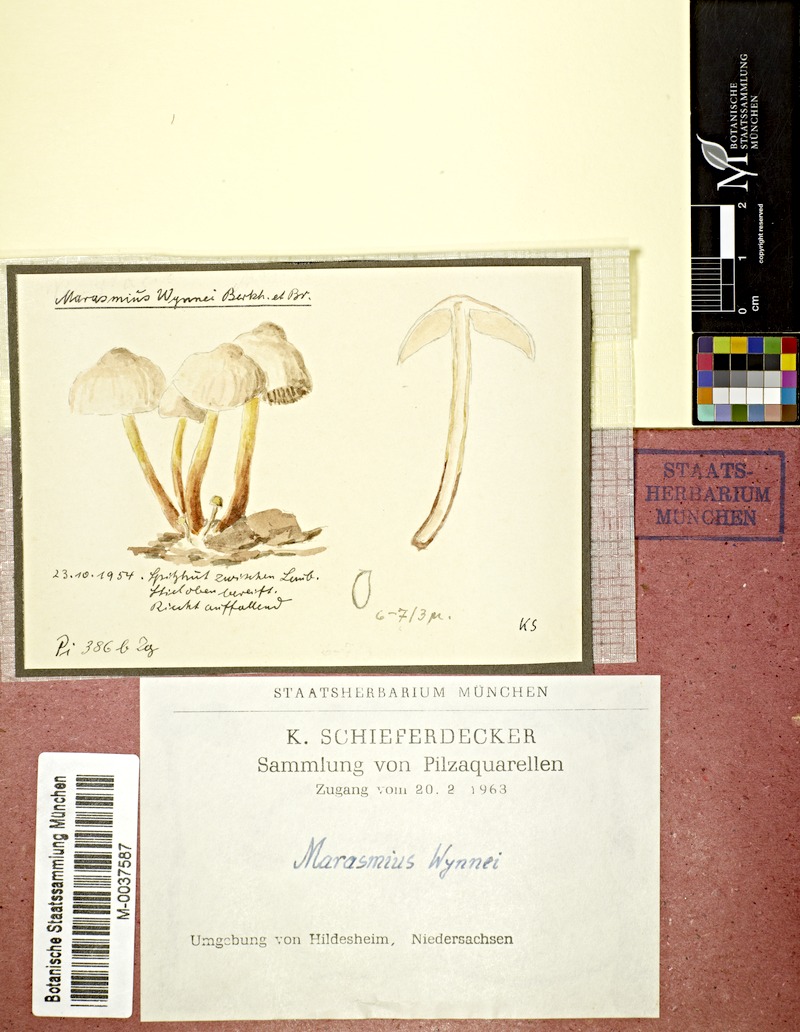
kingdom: Fungi
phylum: Basidiomycota
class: Agaricomycetes
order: Agaricales
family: Marasmiaceae
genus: Marasmius
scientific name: Marasmius wynneae
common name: Pearly parachute
